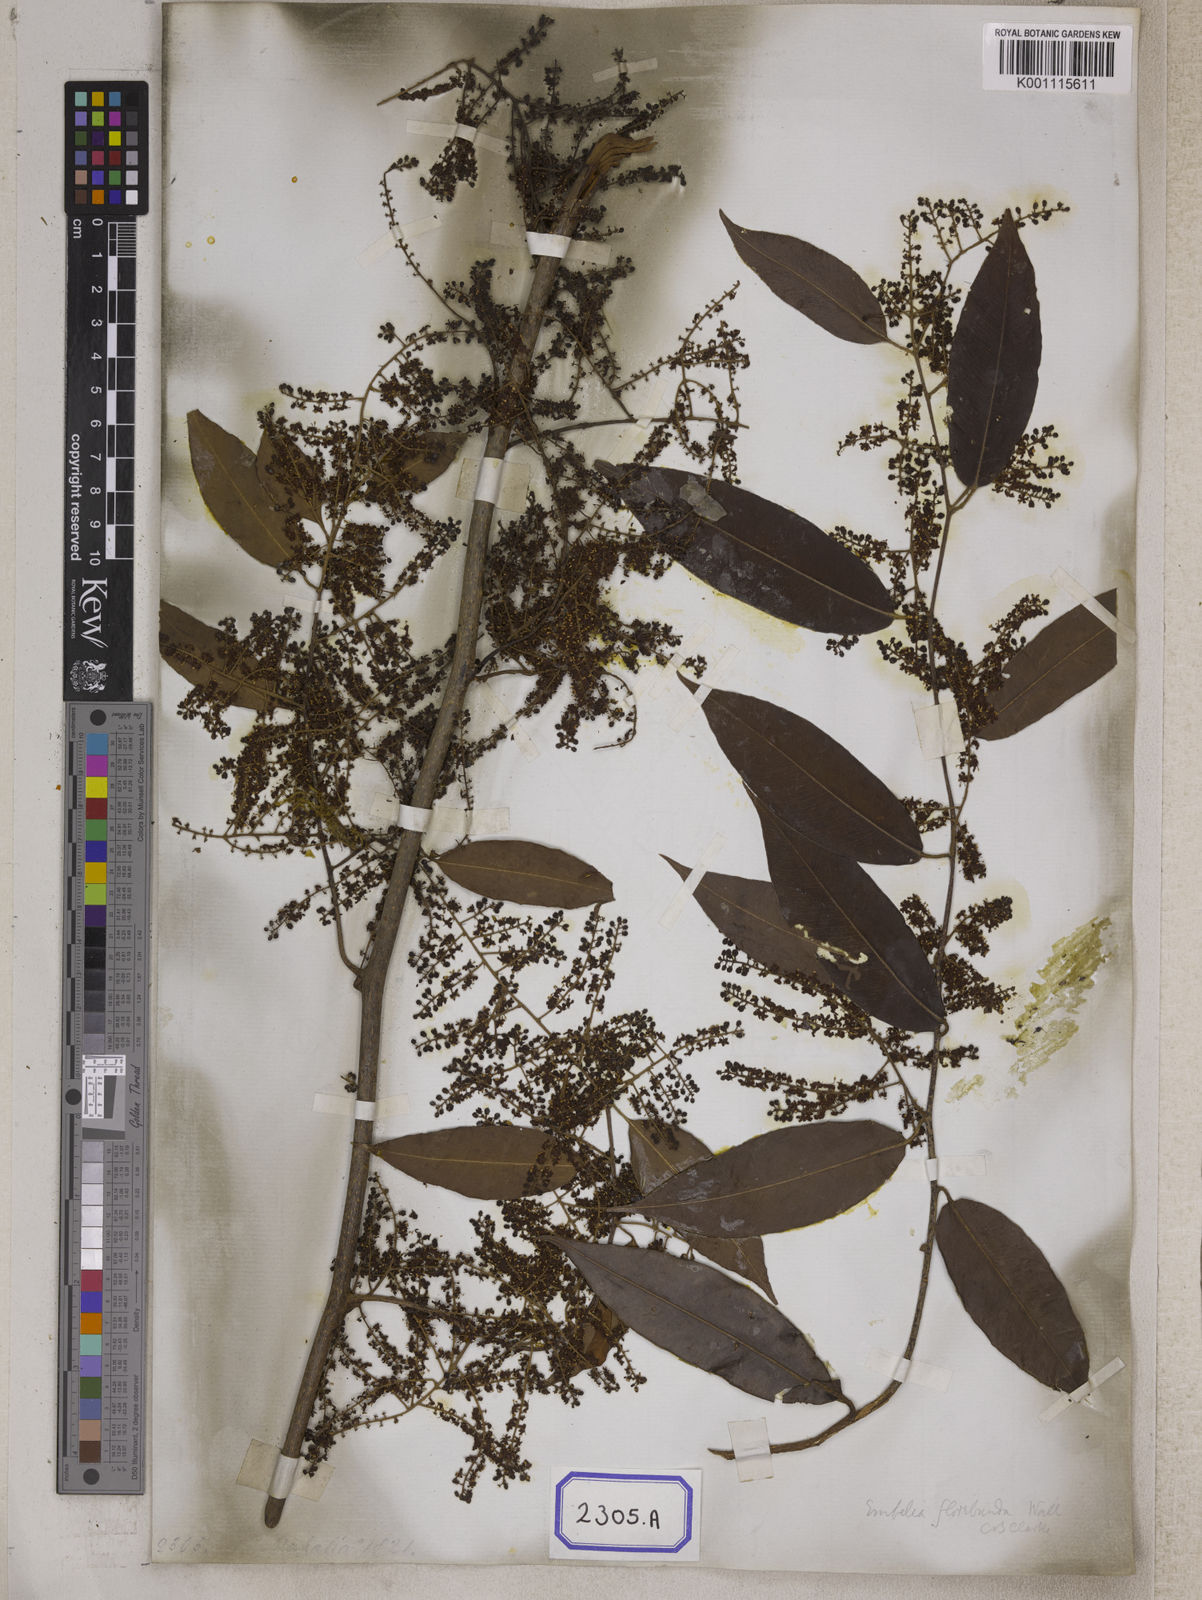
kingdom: Plantae
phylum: Tracheophyta
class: Magnoliopsida
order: Ericales
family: Primulaceae
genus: Embelia
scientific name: Embelia floribunda
